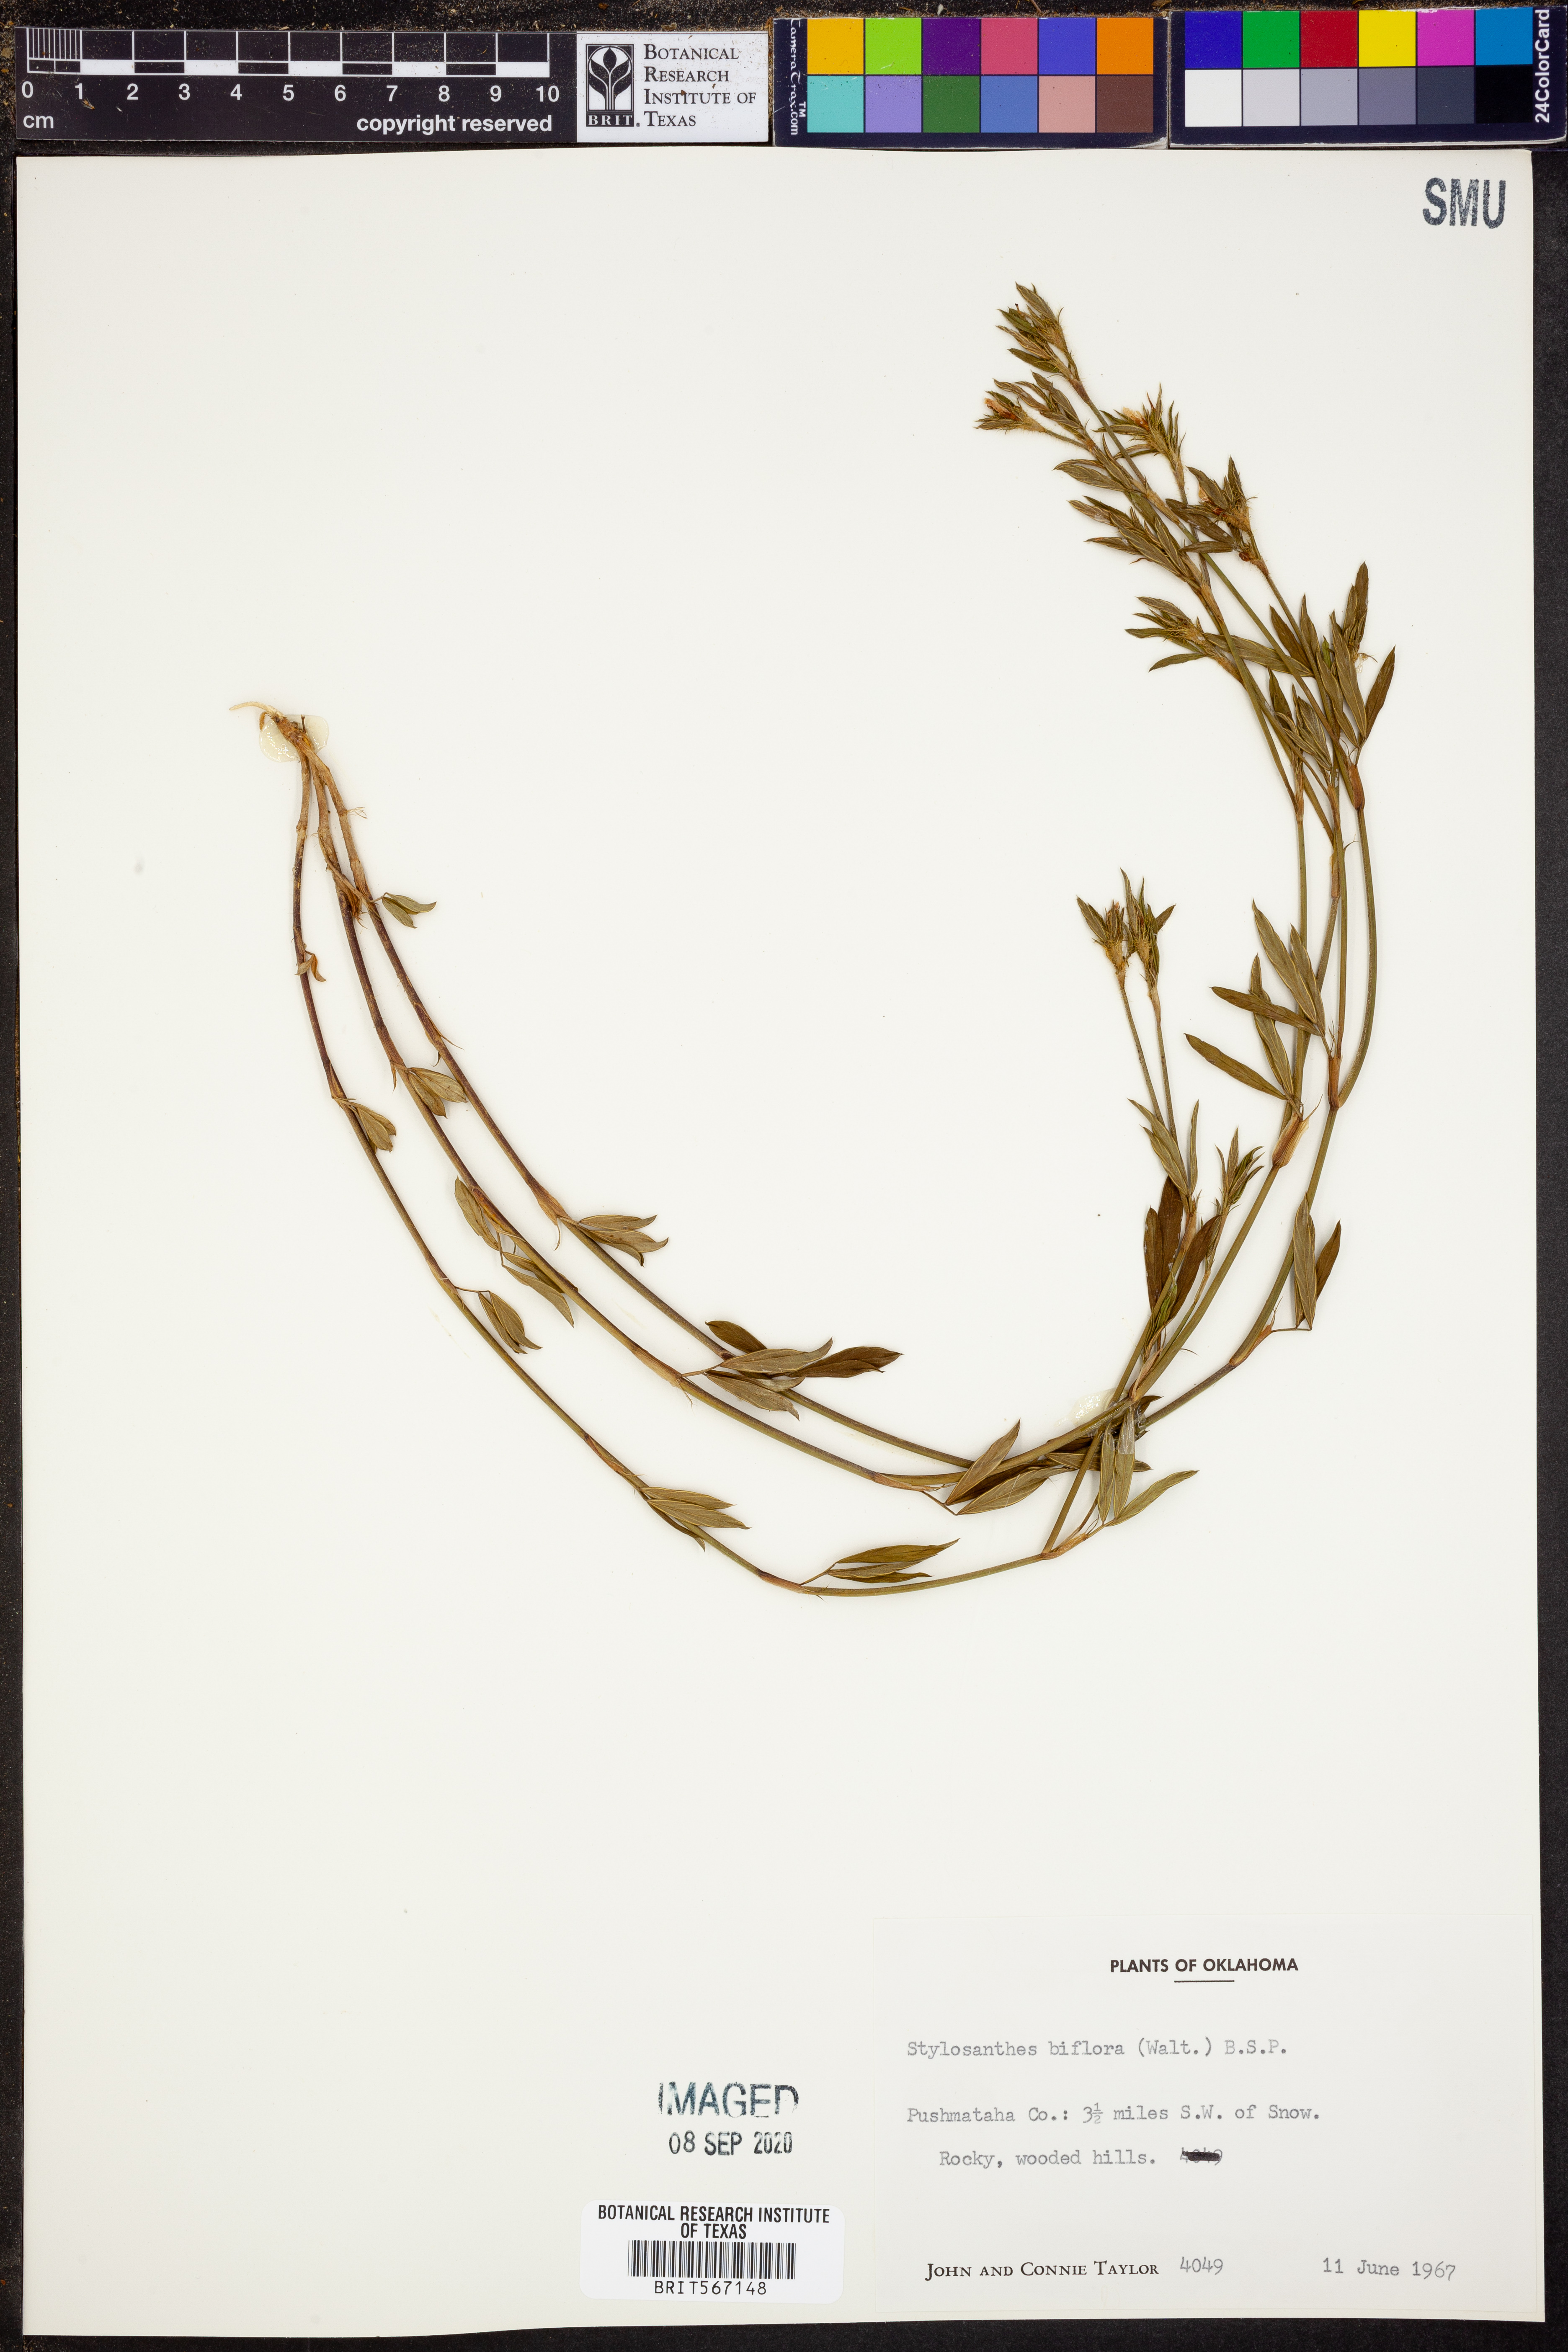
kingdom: Plantae
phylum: Tracheophyta
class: Magnoliopsida
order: Fabales
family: Fabaceae
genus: Stylosanthes
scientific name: Stylosanthes biflora
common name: Two-flower pencil-flower
